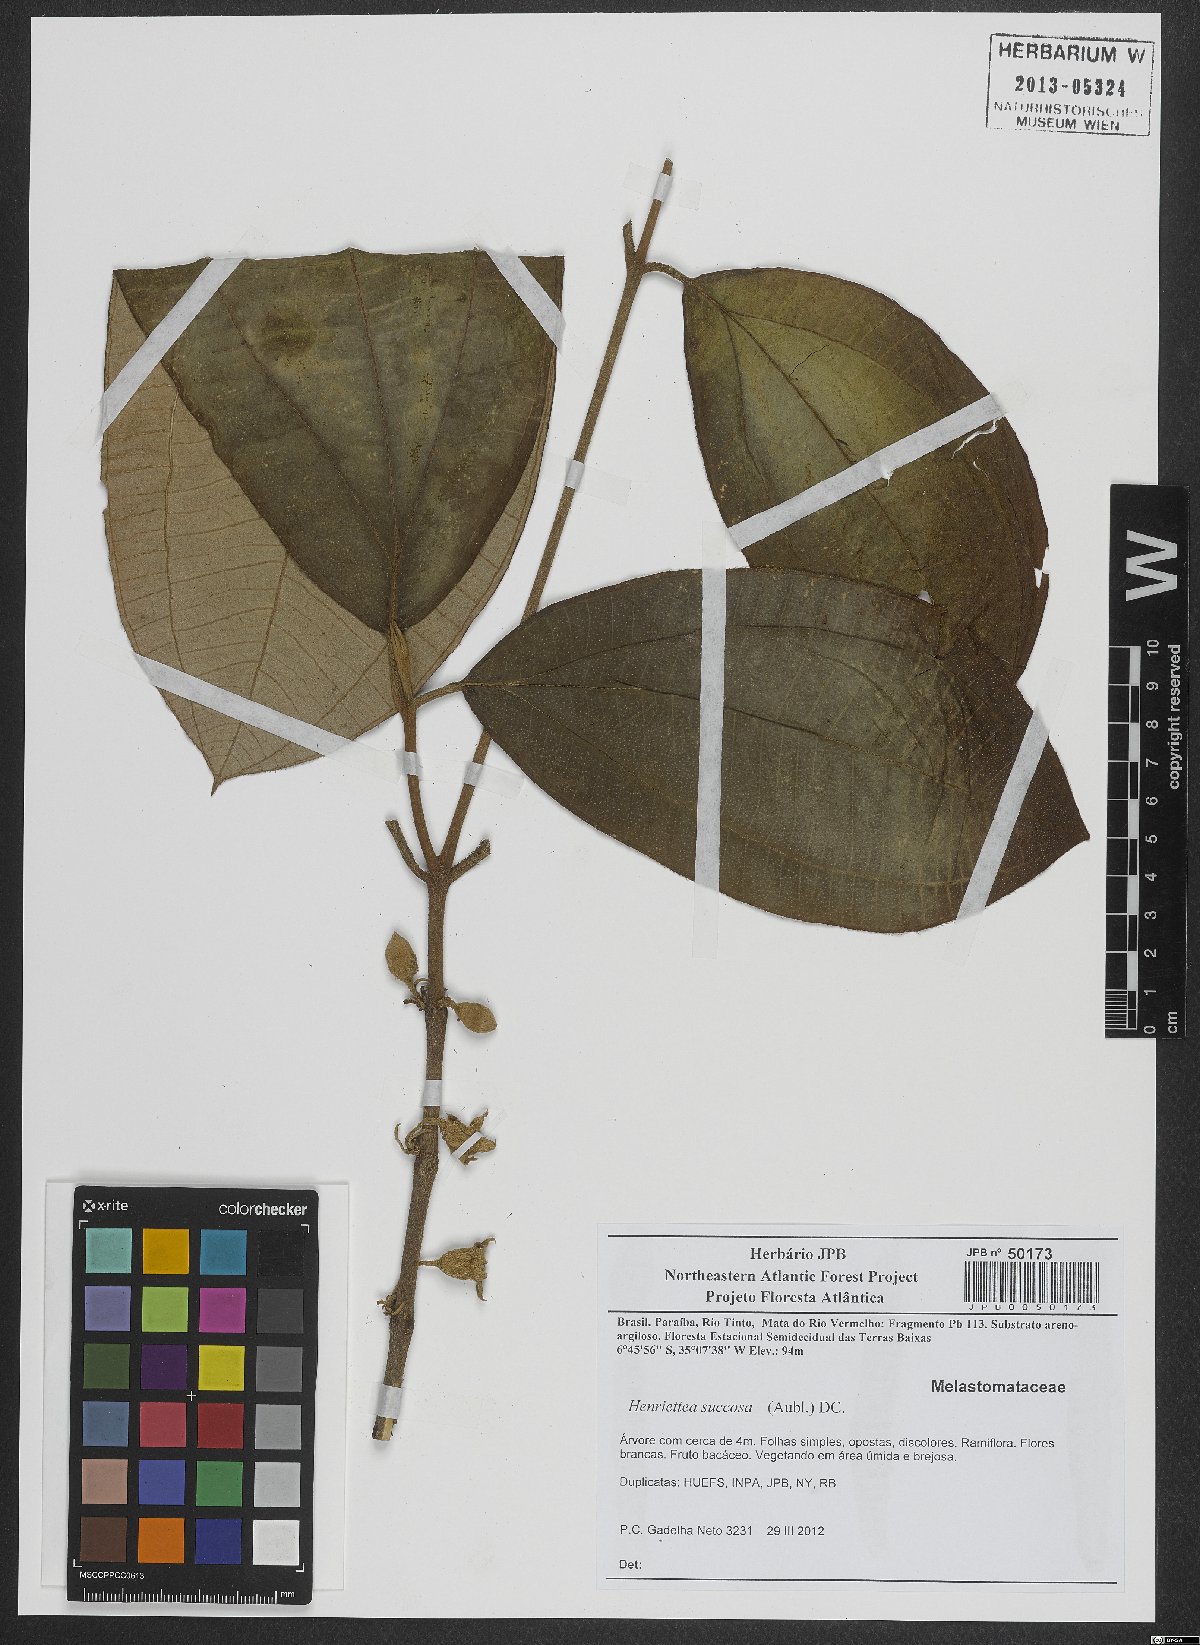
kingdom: Plantae
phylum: Tracheophyta
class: Magnoliopsida
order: Myrtales
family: Melastomataceae
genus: Henriettea
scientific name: Henriettea succosa
